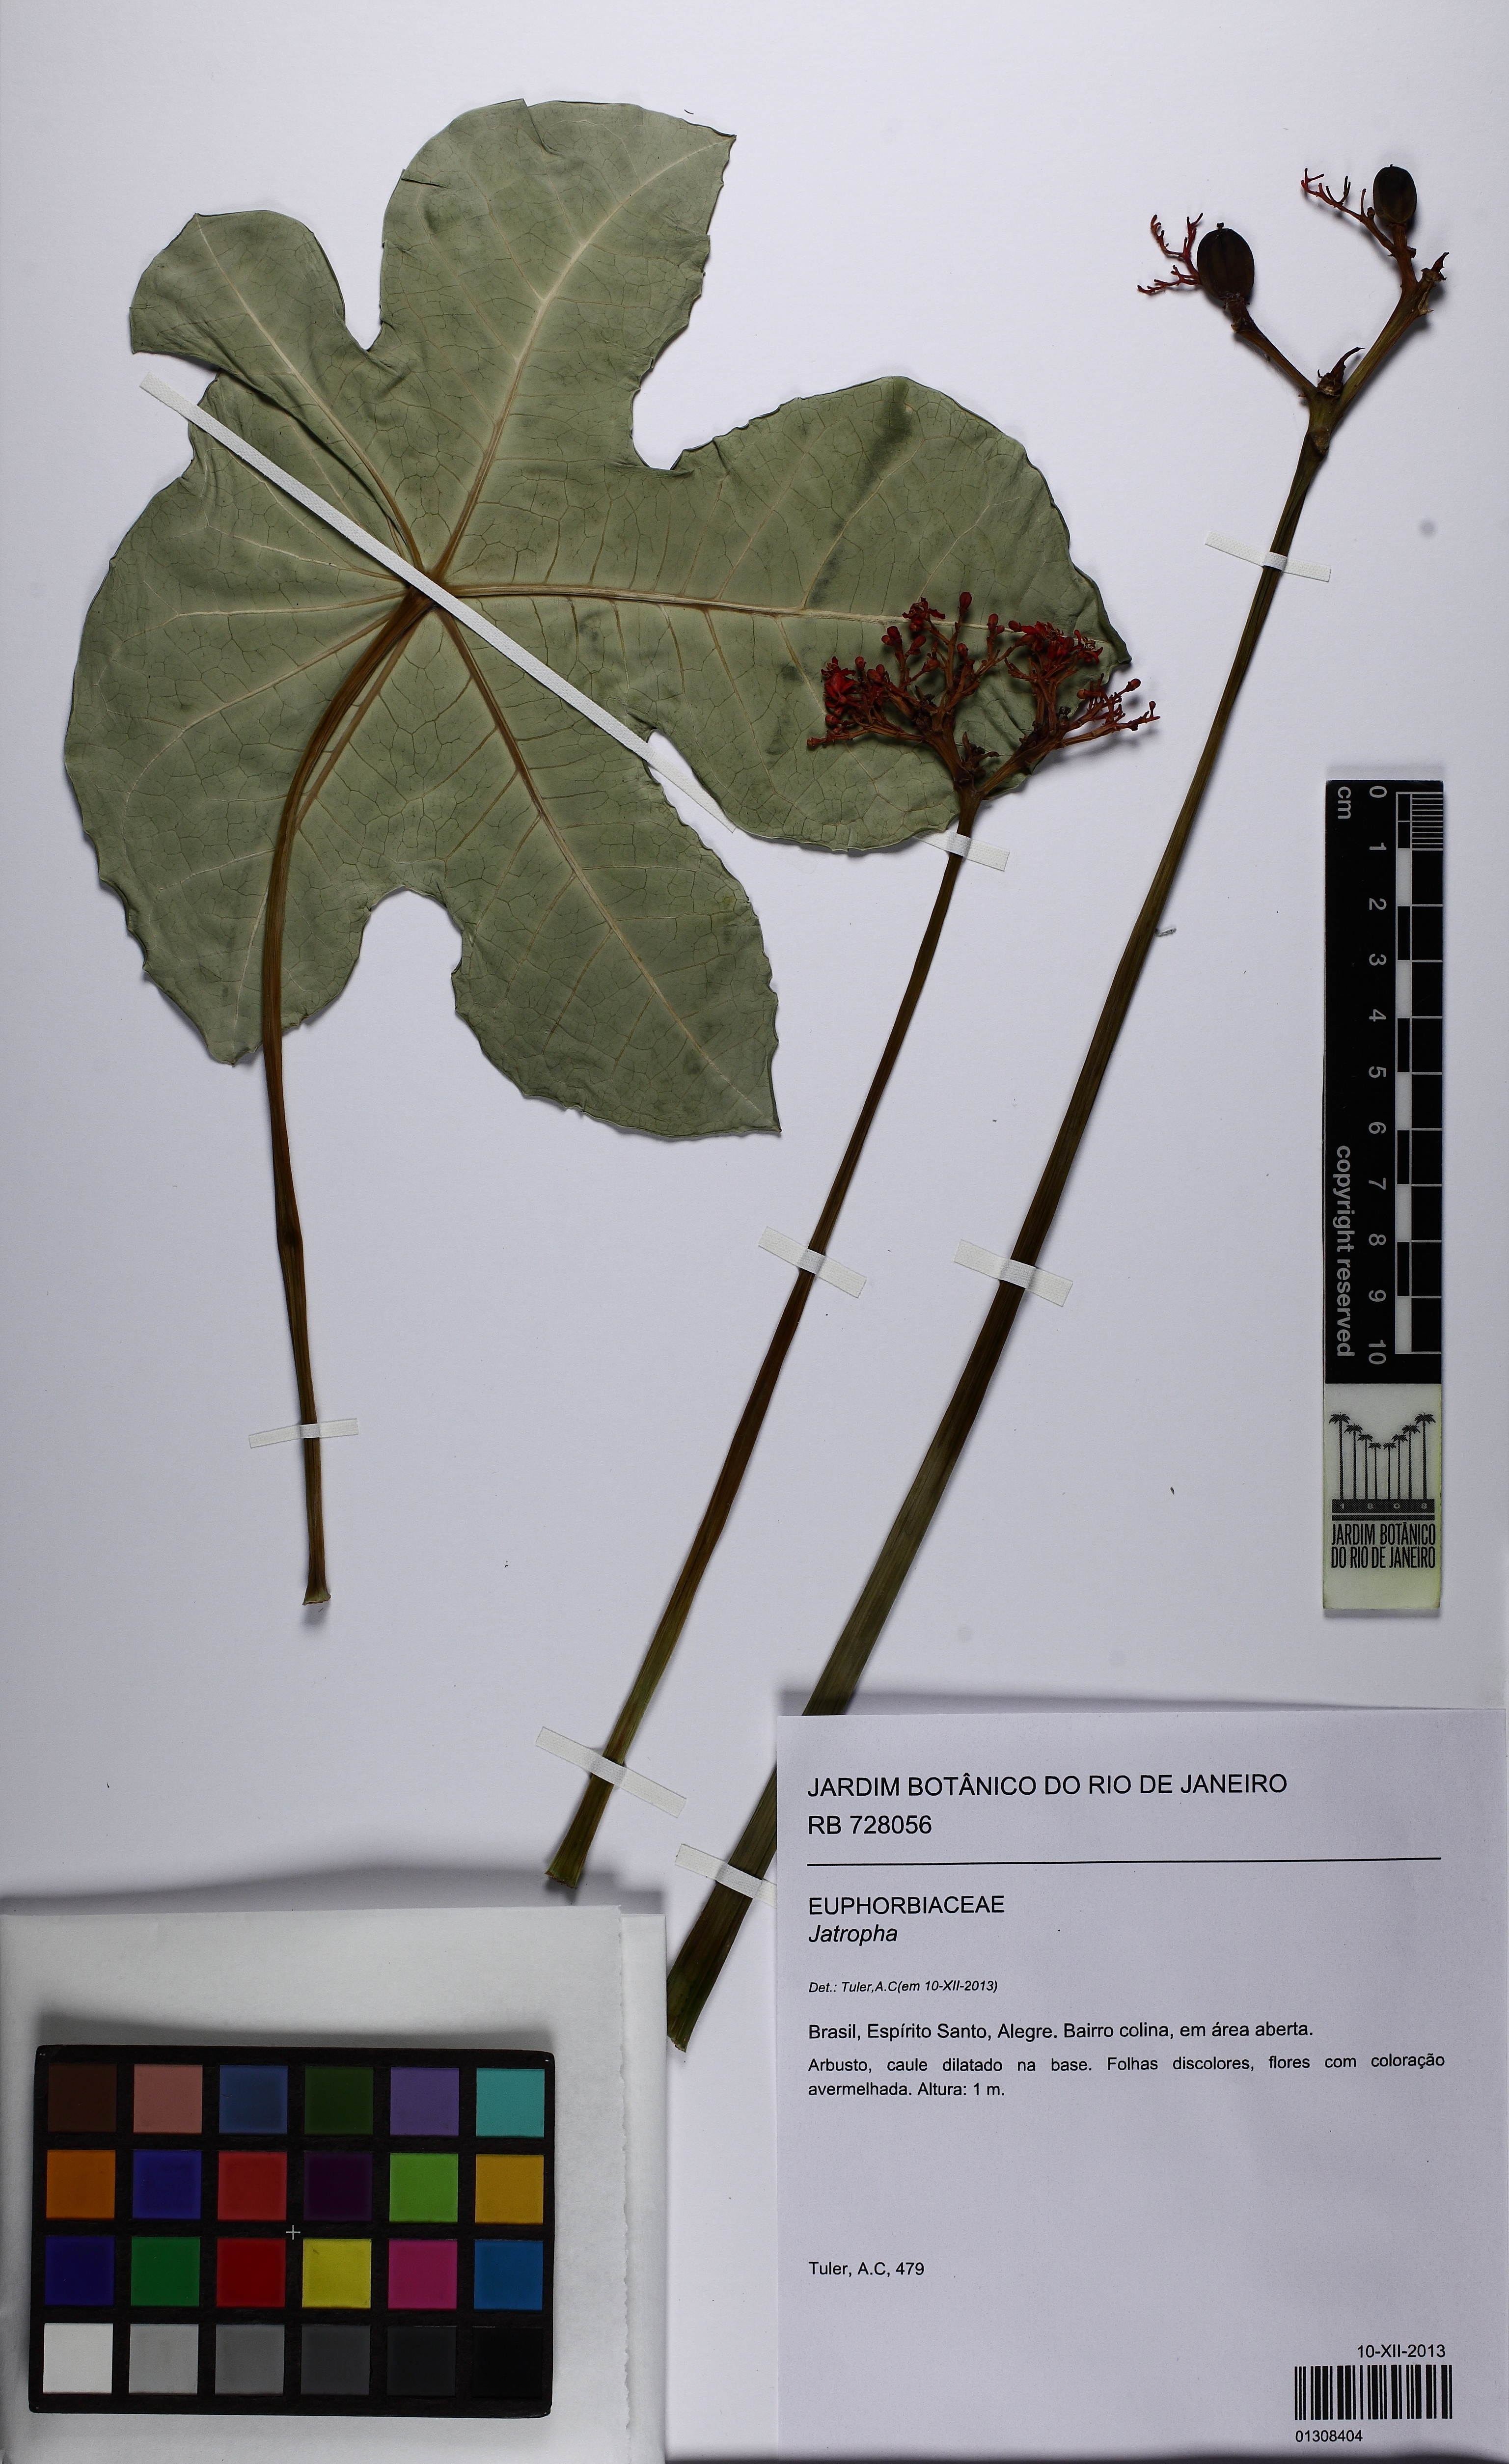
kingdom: Plantae
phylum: Tracheophyta
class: Magnoliopsida
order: Malpighiales
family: Euphorbiaceae
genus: Jatropha
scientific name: Jatropha podagrica
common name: Gout stalk
